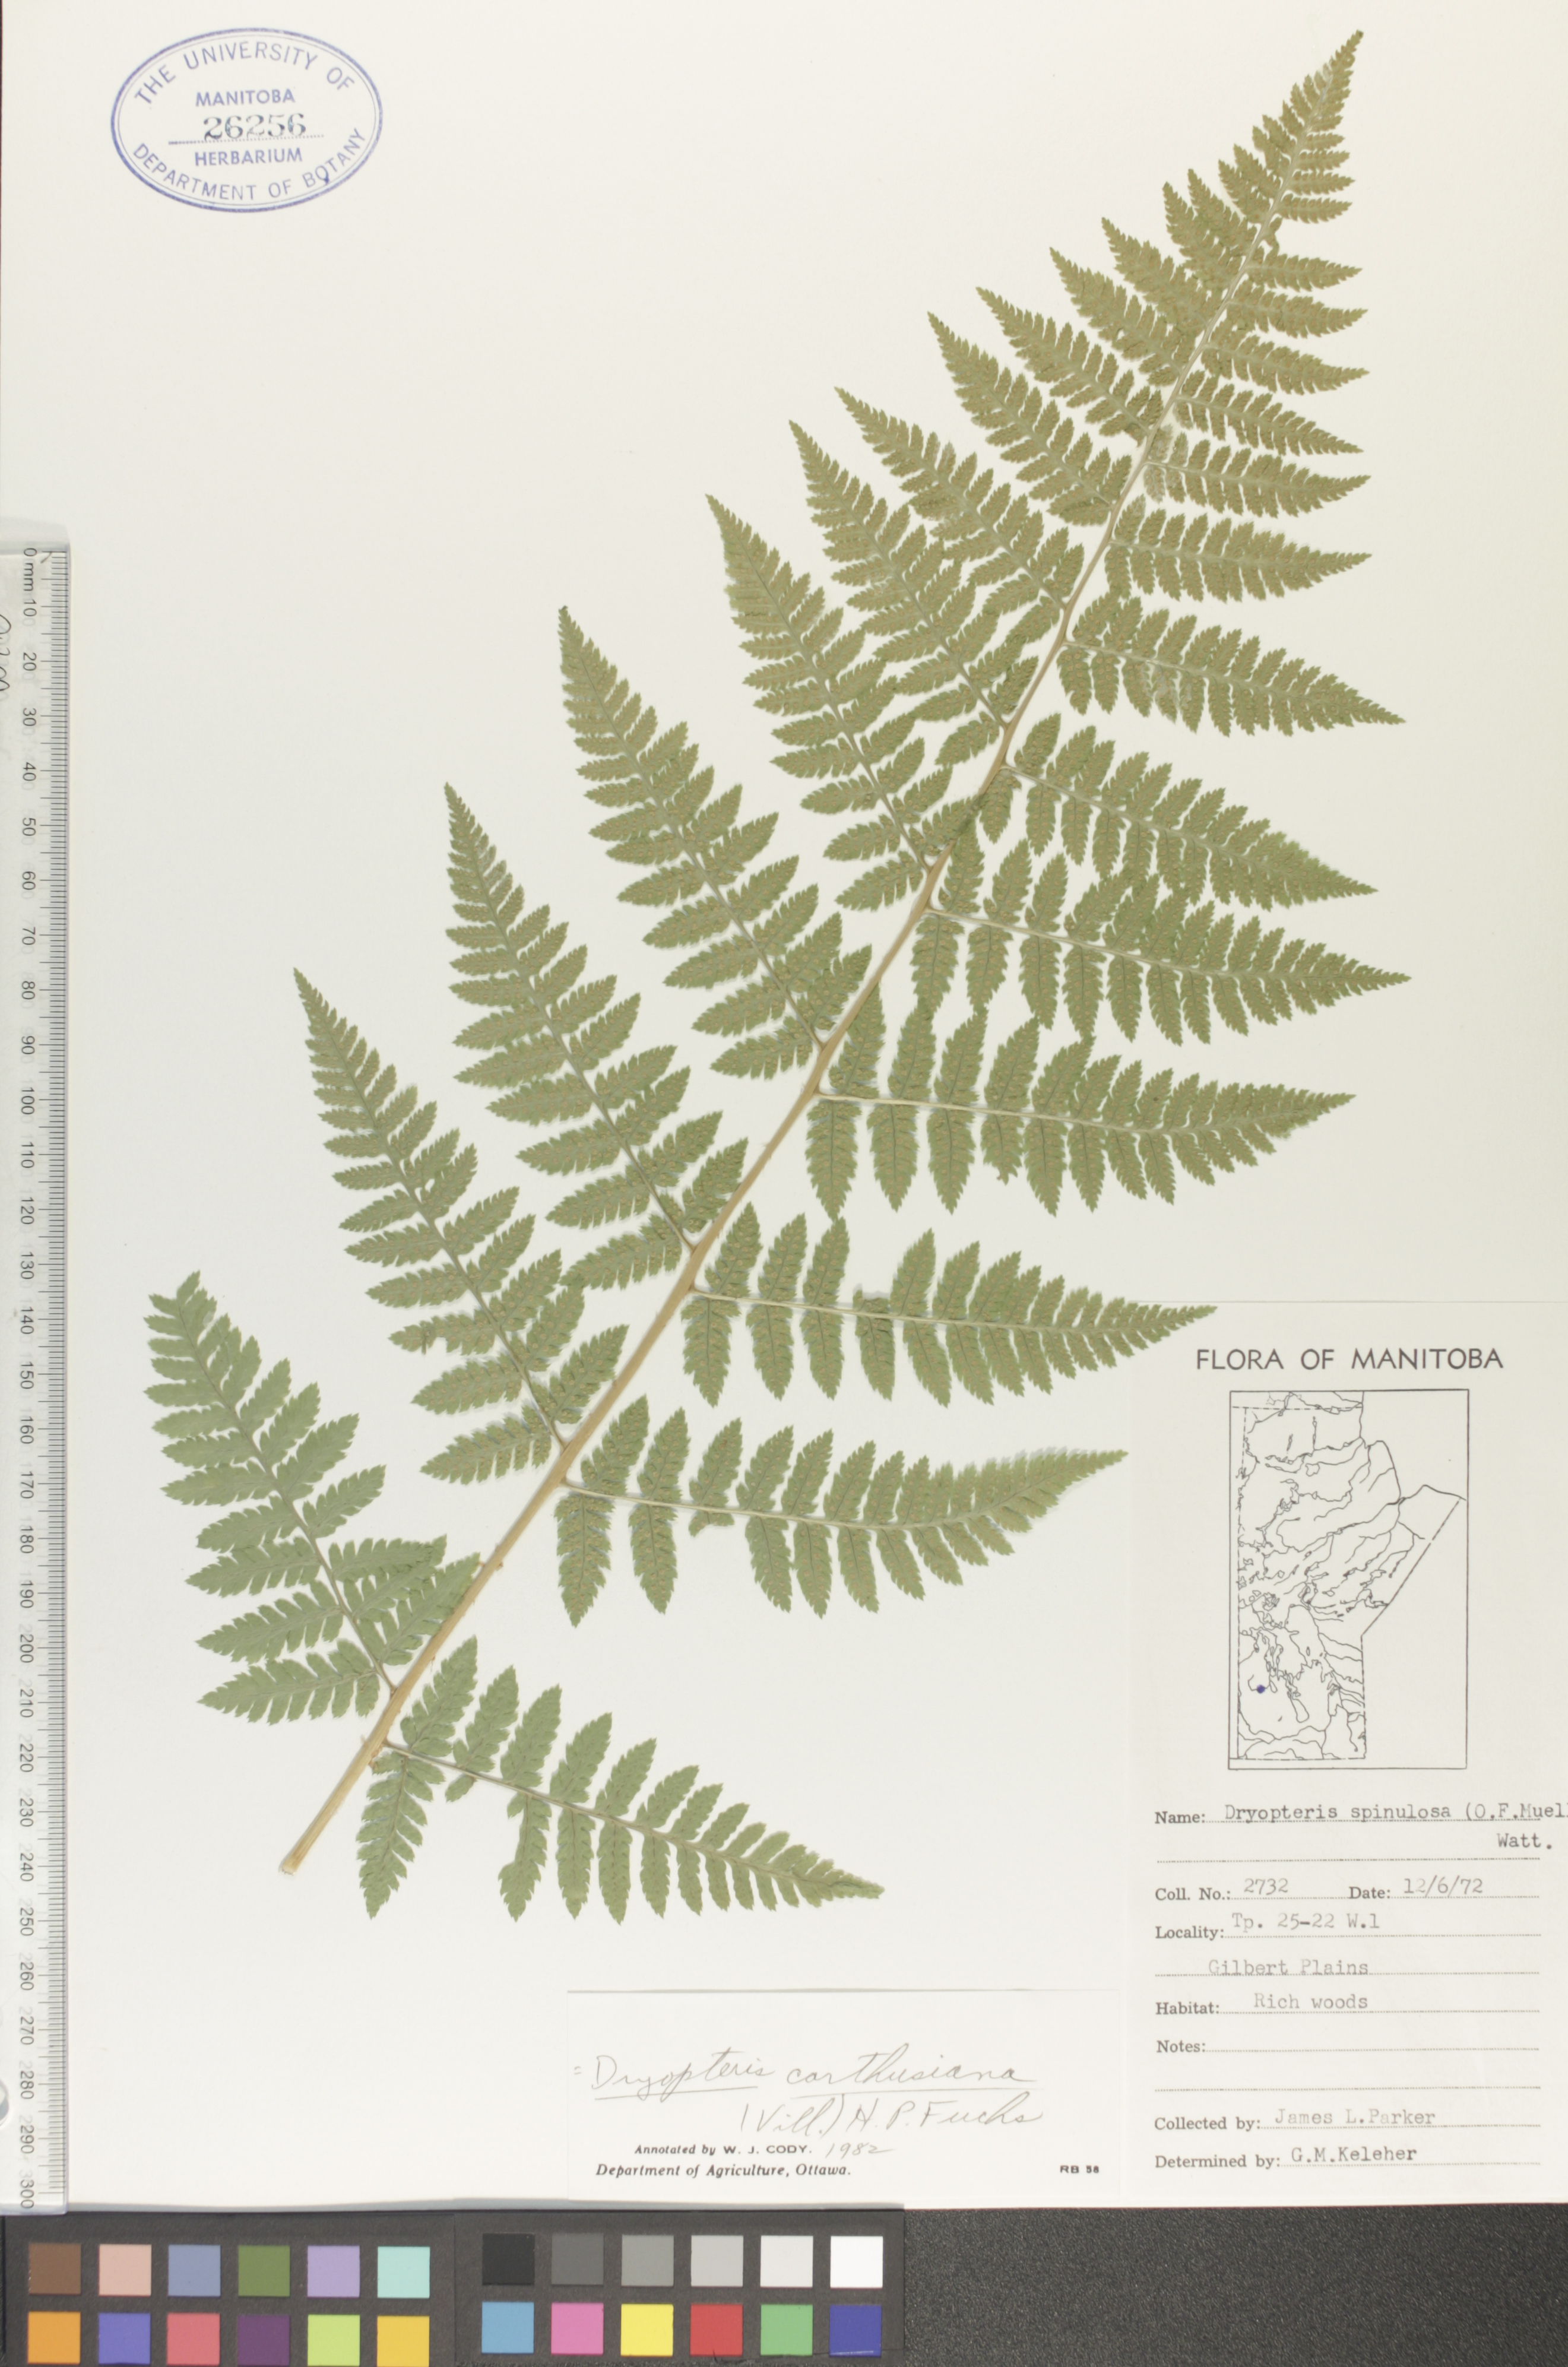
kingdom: Plantae
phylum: Tracheophyta
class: Polypodiopsida
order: Polypodiales
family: Dryopteridaceae
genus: Dryopteris
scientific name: Dryopteris carthusiana
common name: Narrow buckler-fern
